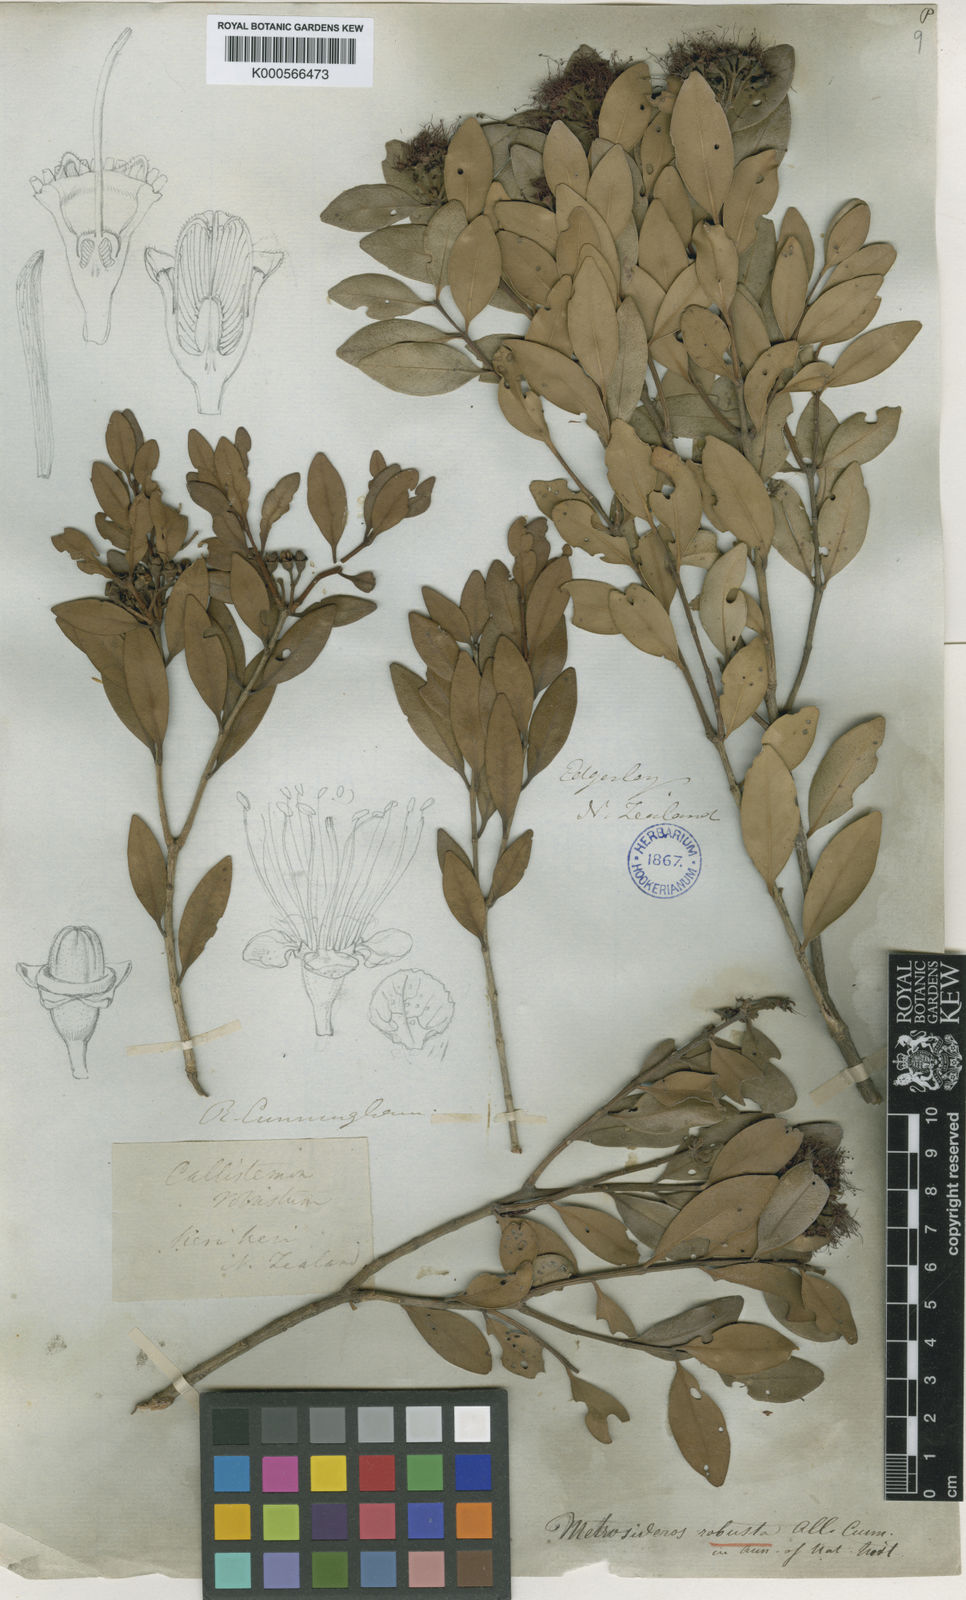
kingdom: Plantae
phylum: Tracheophyta
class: Magnoliopsida
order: Myrtales
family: Myrtaceae
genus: Metrosideros
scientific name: Metrosideros robusta
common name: Northern rata
